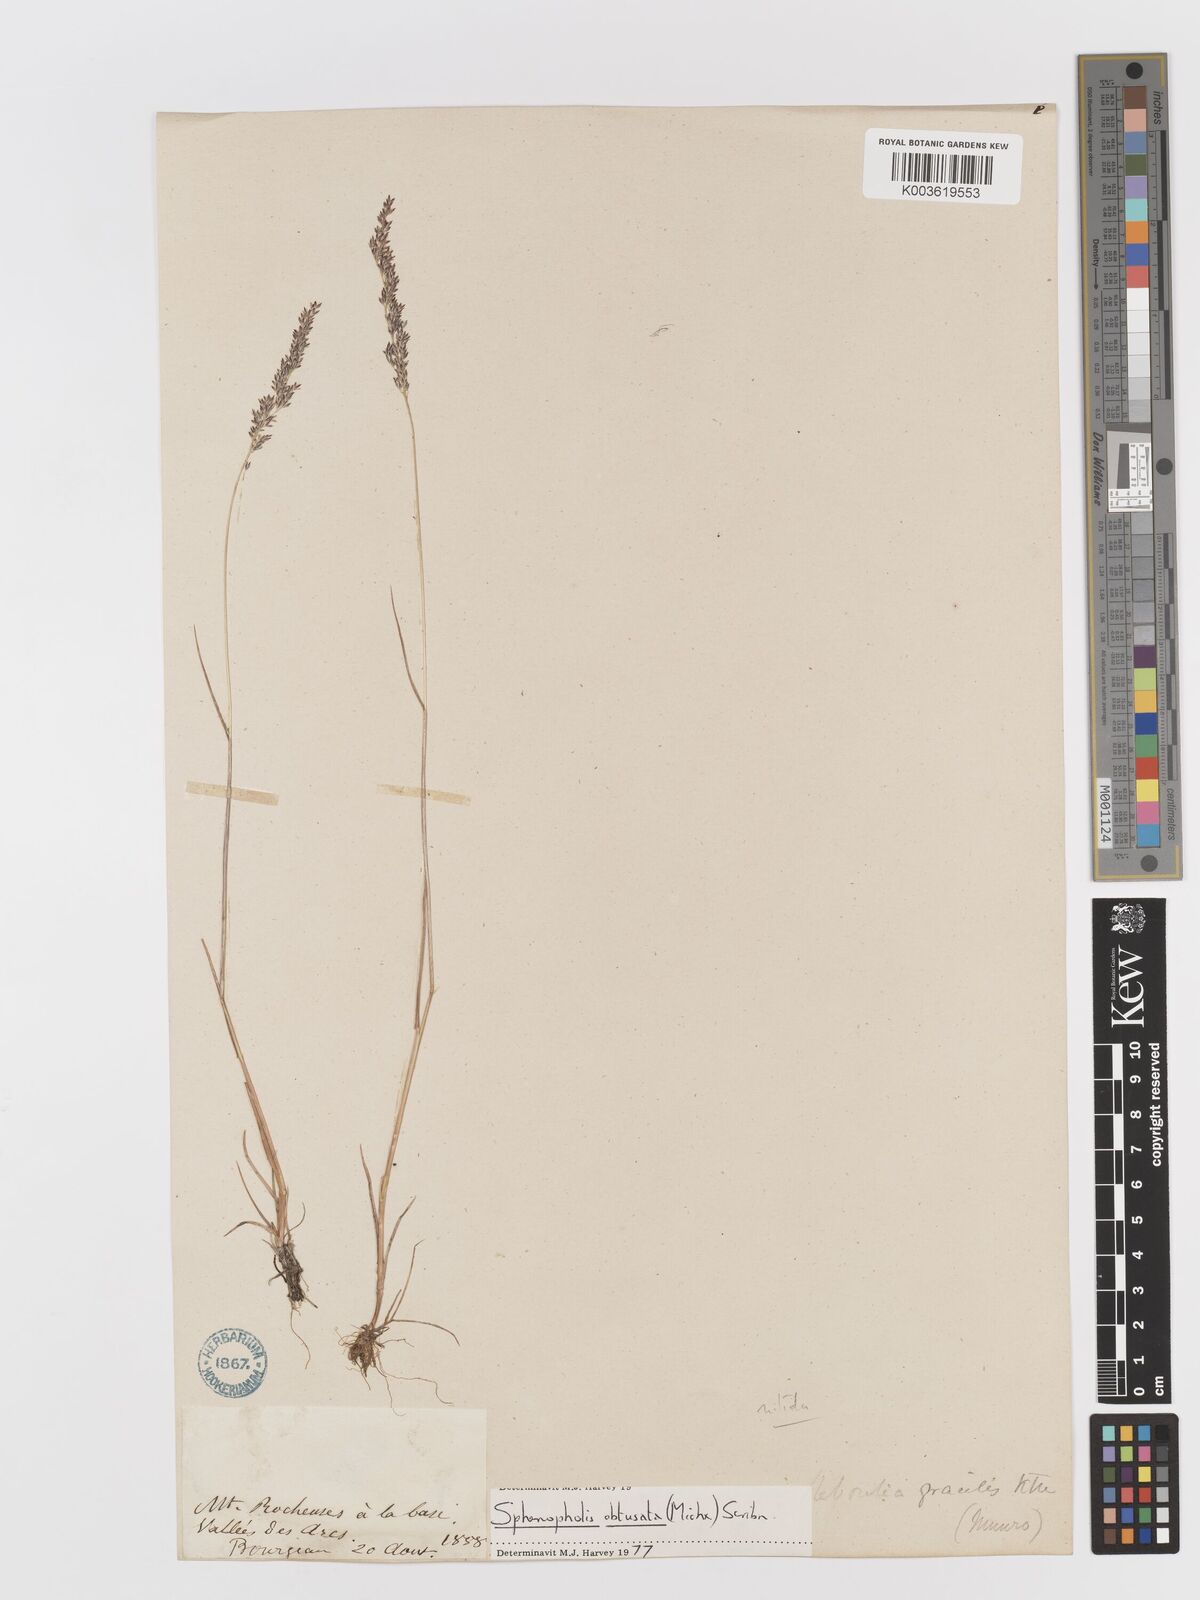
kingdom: Plantae
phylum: Tracheophyta
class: Liliopsida
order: Poales
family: Poaceae
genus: Sphenopholis
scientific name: Sphenopholis obtusata
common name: Prairie grass
